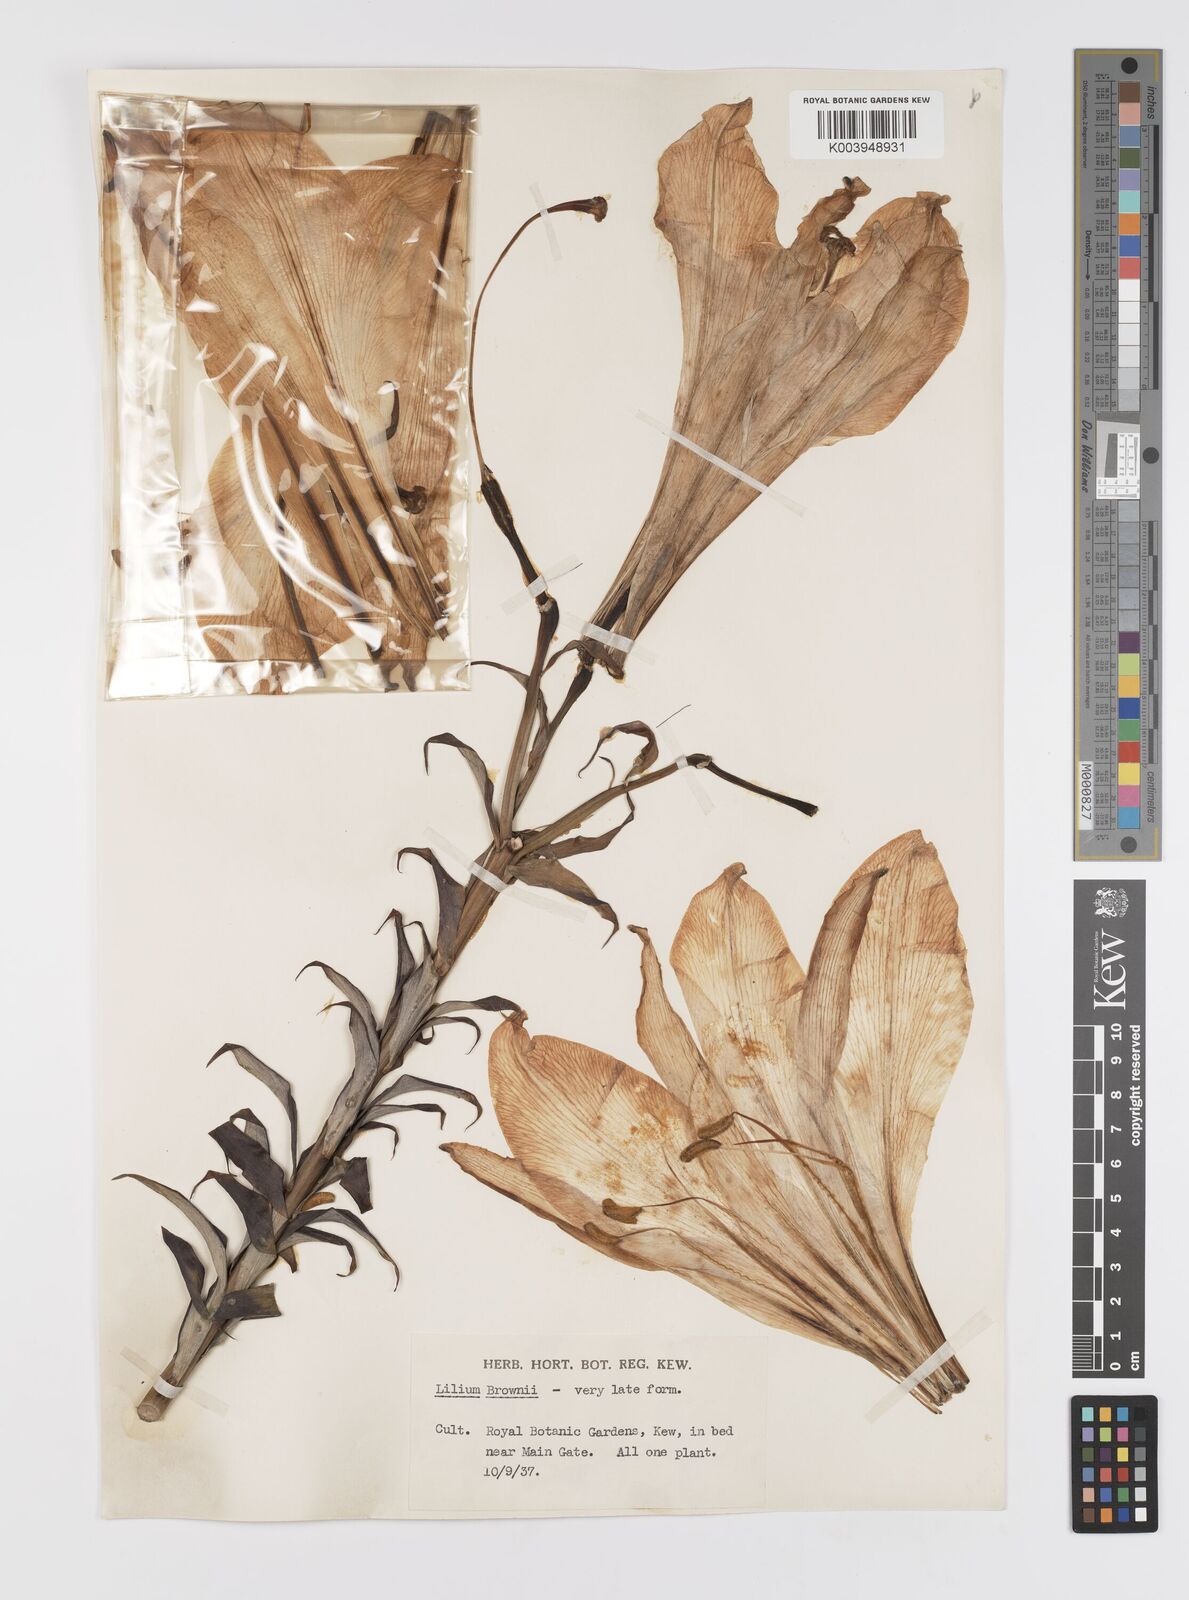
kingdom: Plantae
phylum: Tracheophyta
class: Liliopsida
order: Liliales
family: Liliaceae
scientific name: Liliaceae
